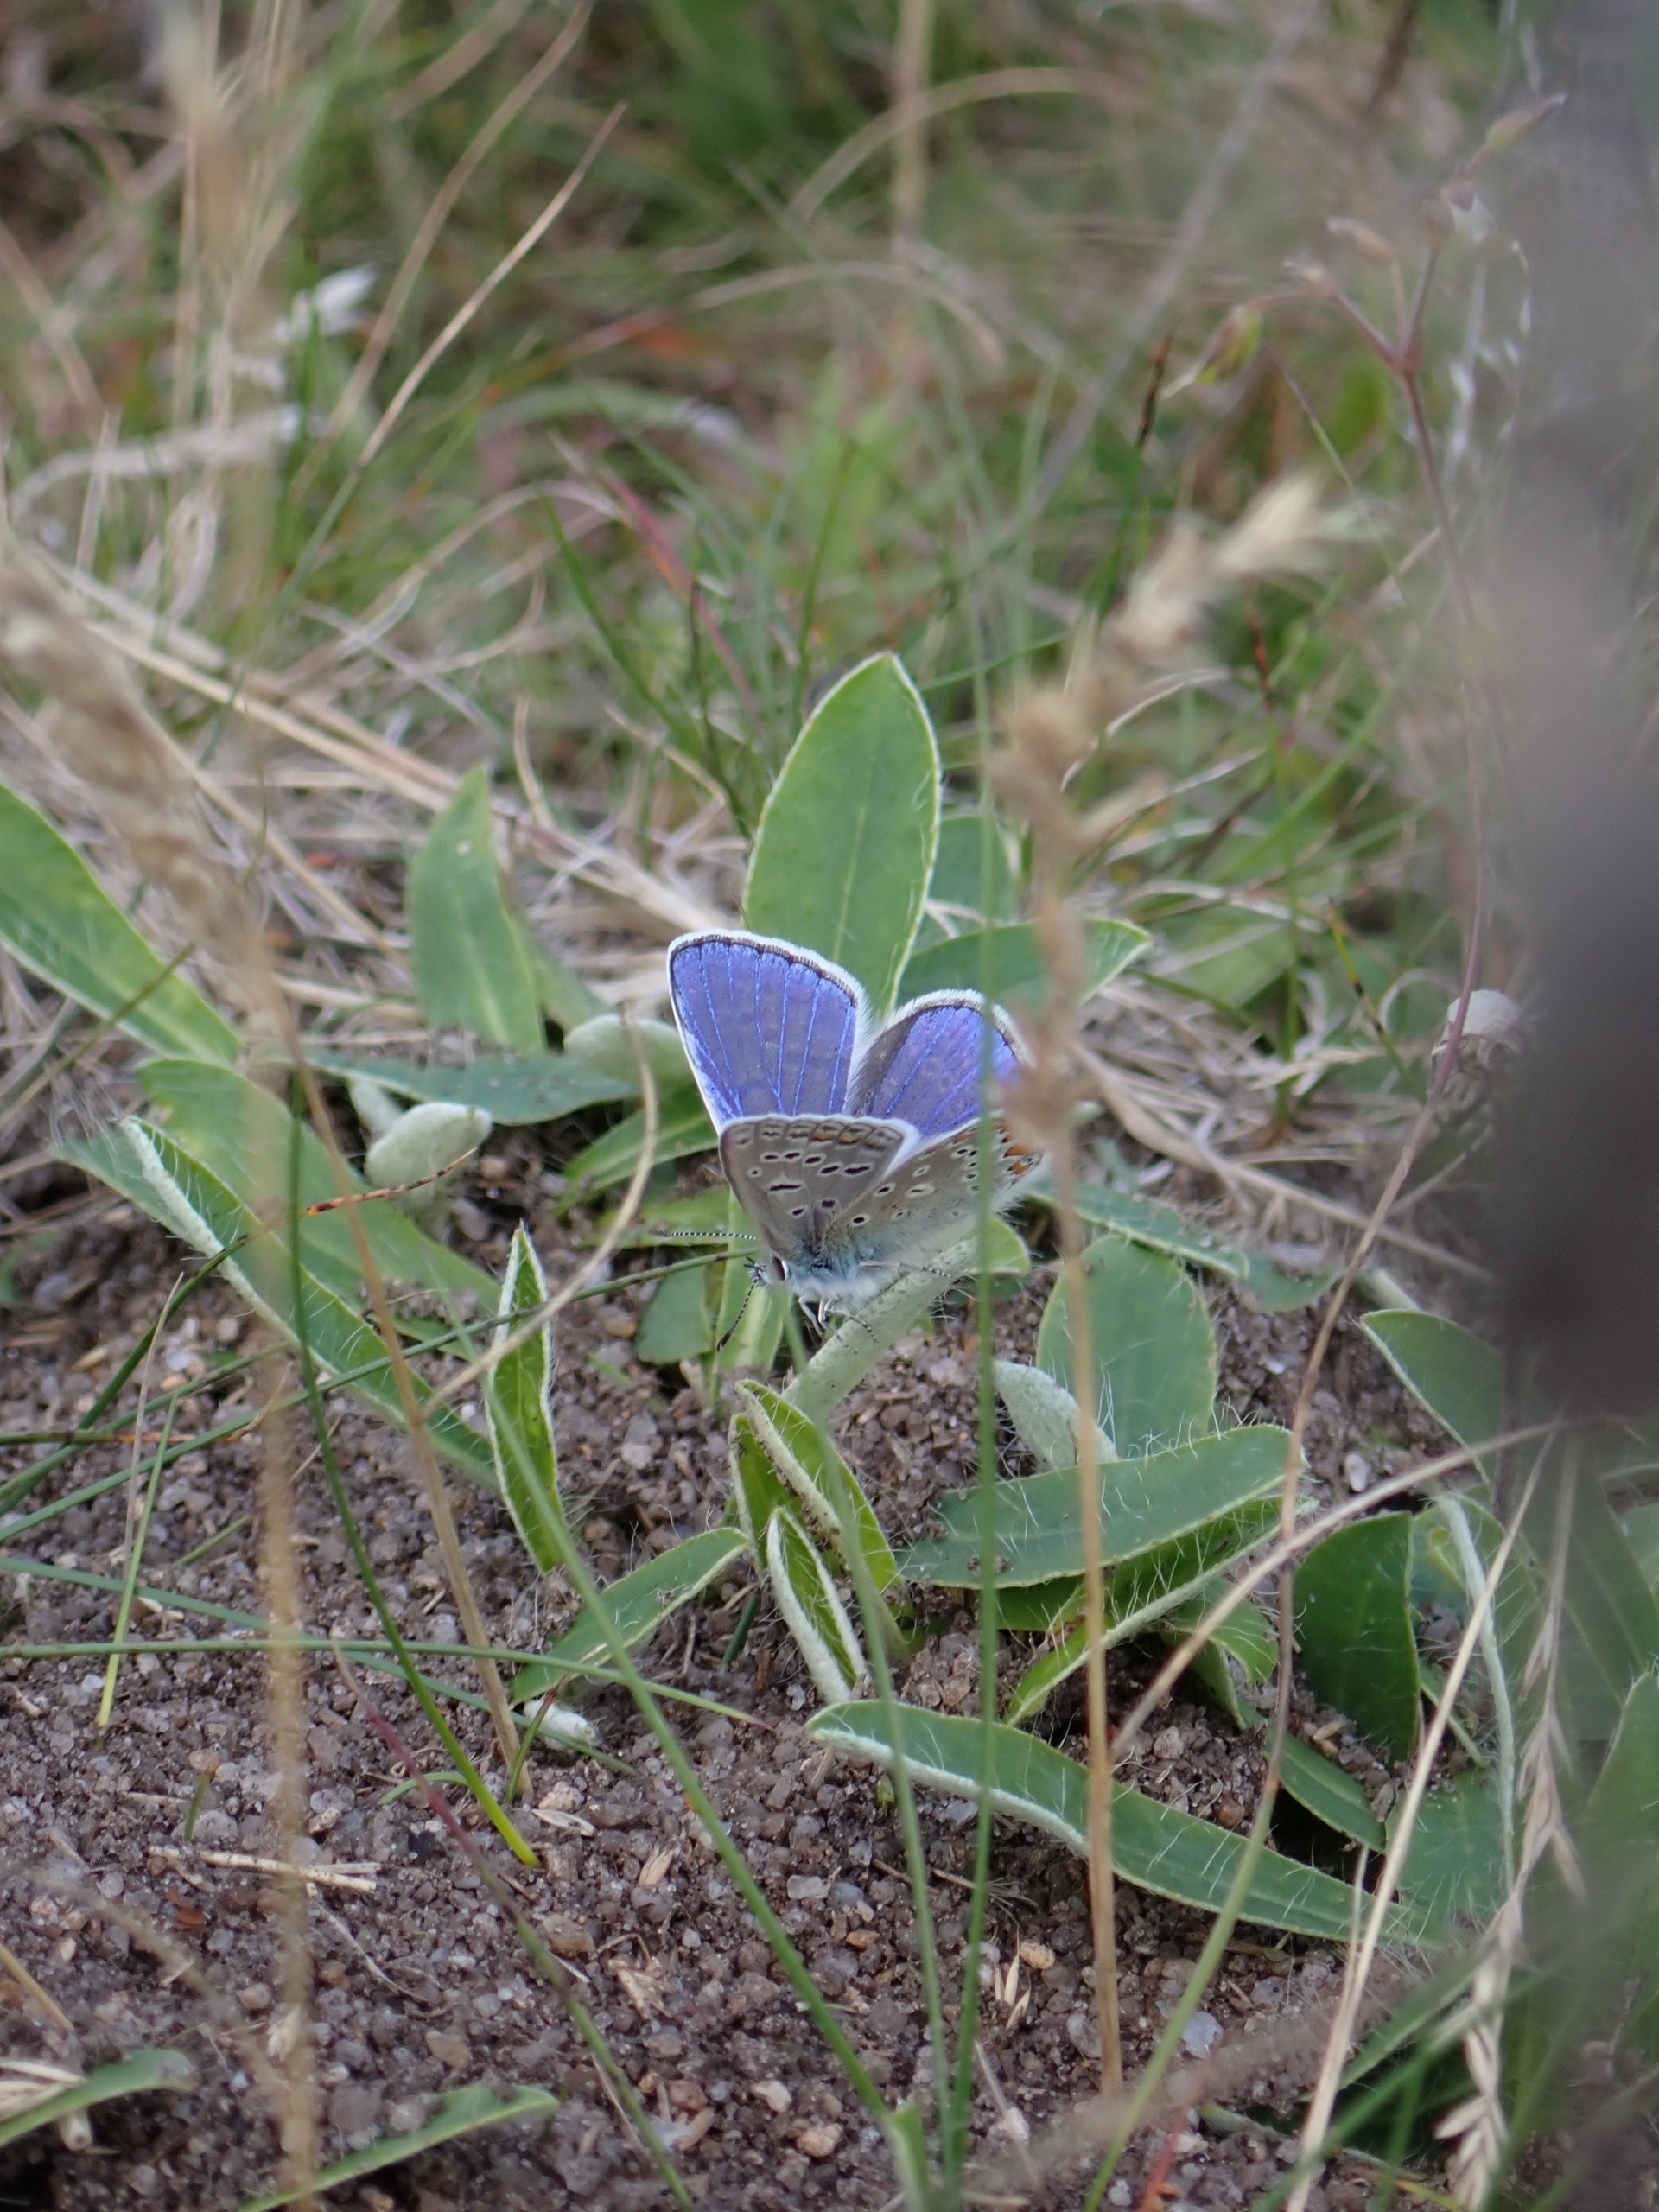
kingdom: Animalia
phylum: Arthropoda
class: Insecta
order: Lepidoptera
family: Lycaenidae
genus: Polyommatus
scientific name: Polyommatus icarus
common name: Almindelig blåfugl
